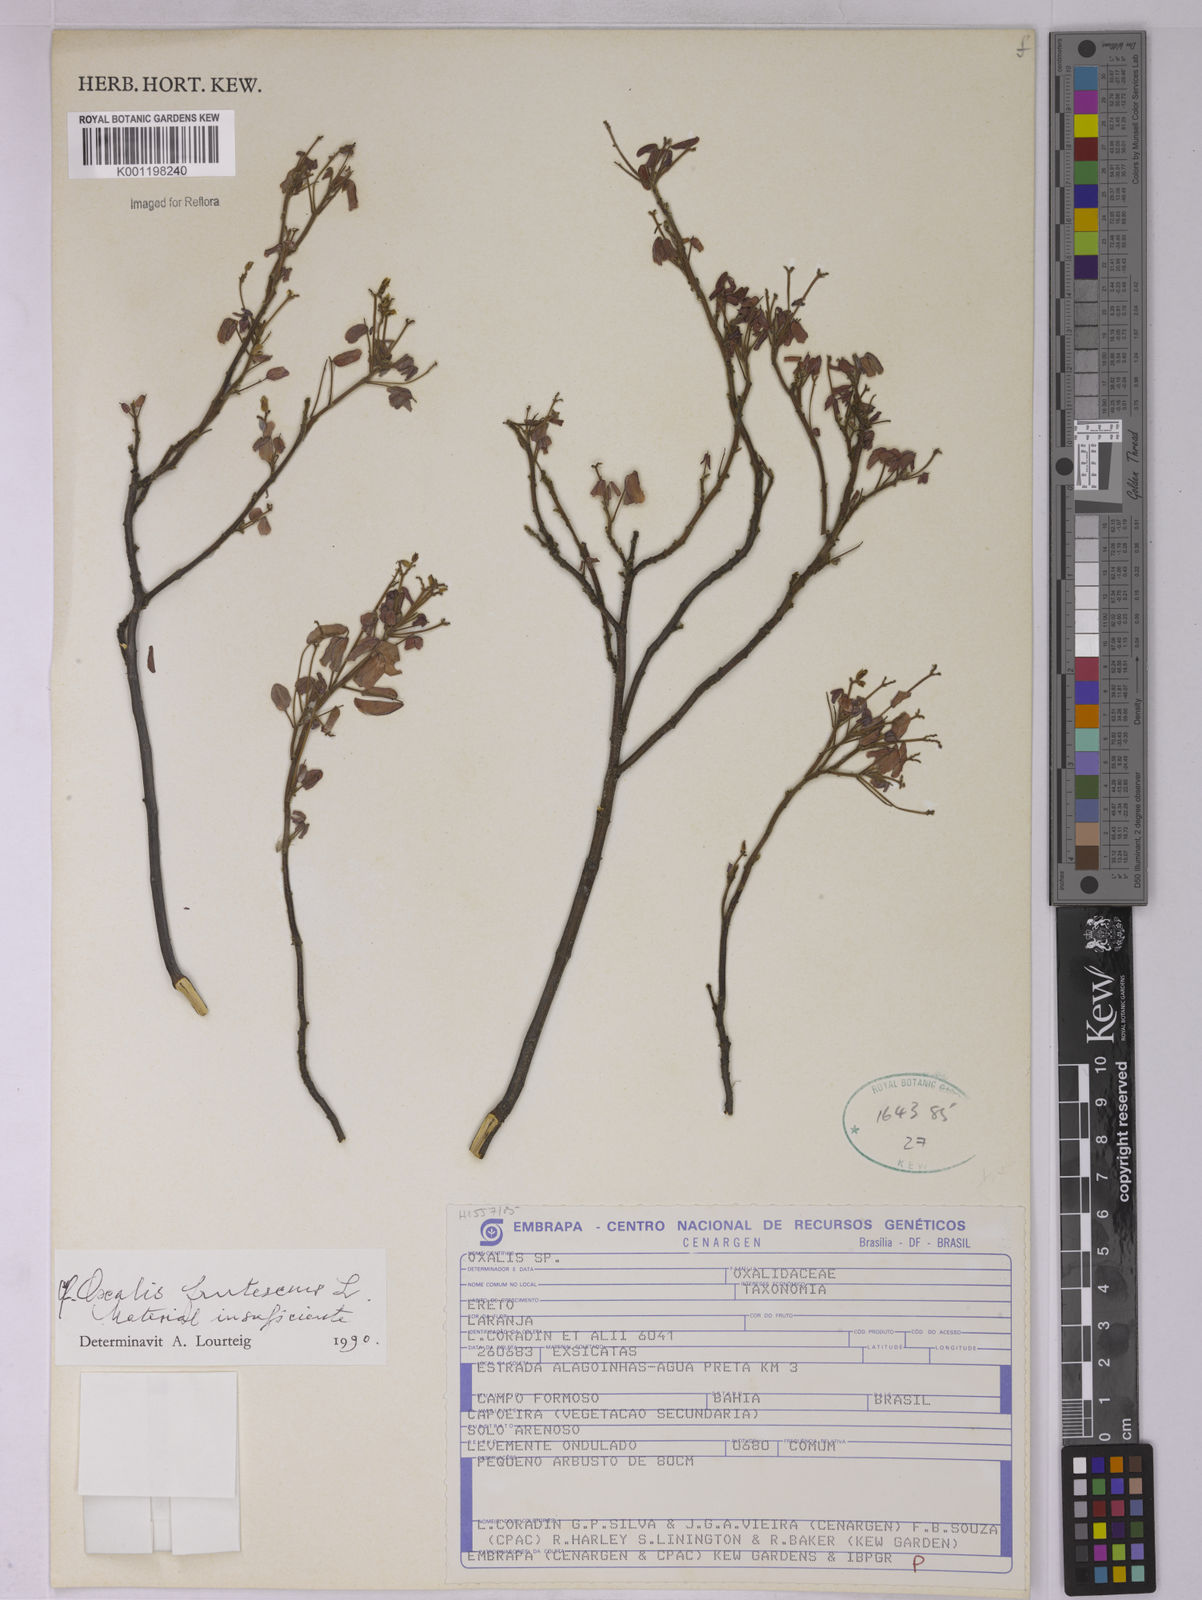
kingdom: Plantae
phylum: Tracheophyta
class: Magnoliopsida
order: Oxalidales
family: Oxalidaceae
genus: Oxalis
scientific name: Oxalis frutescens
